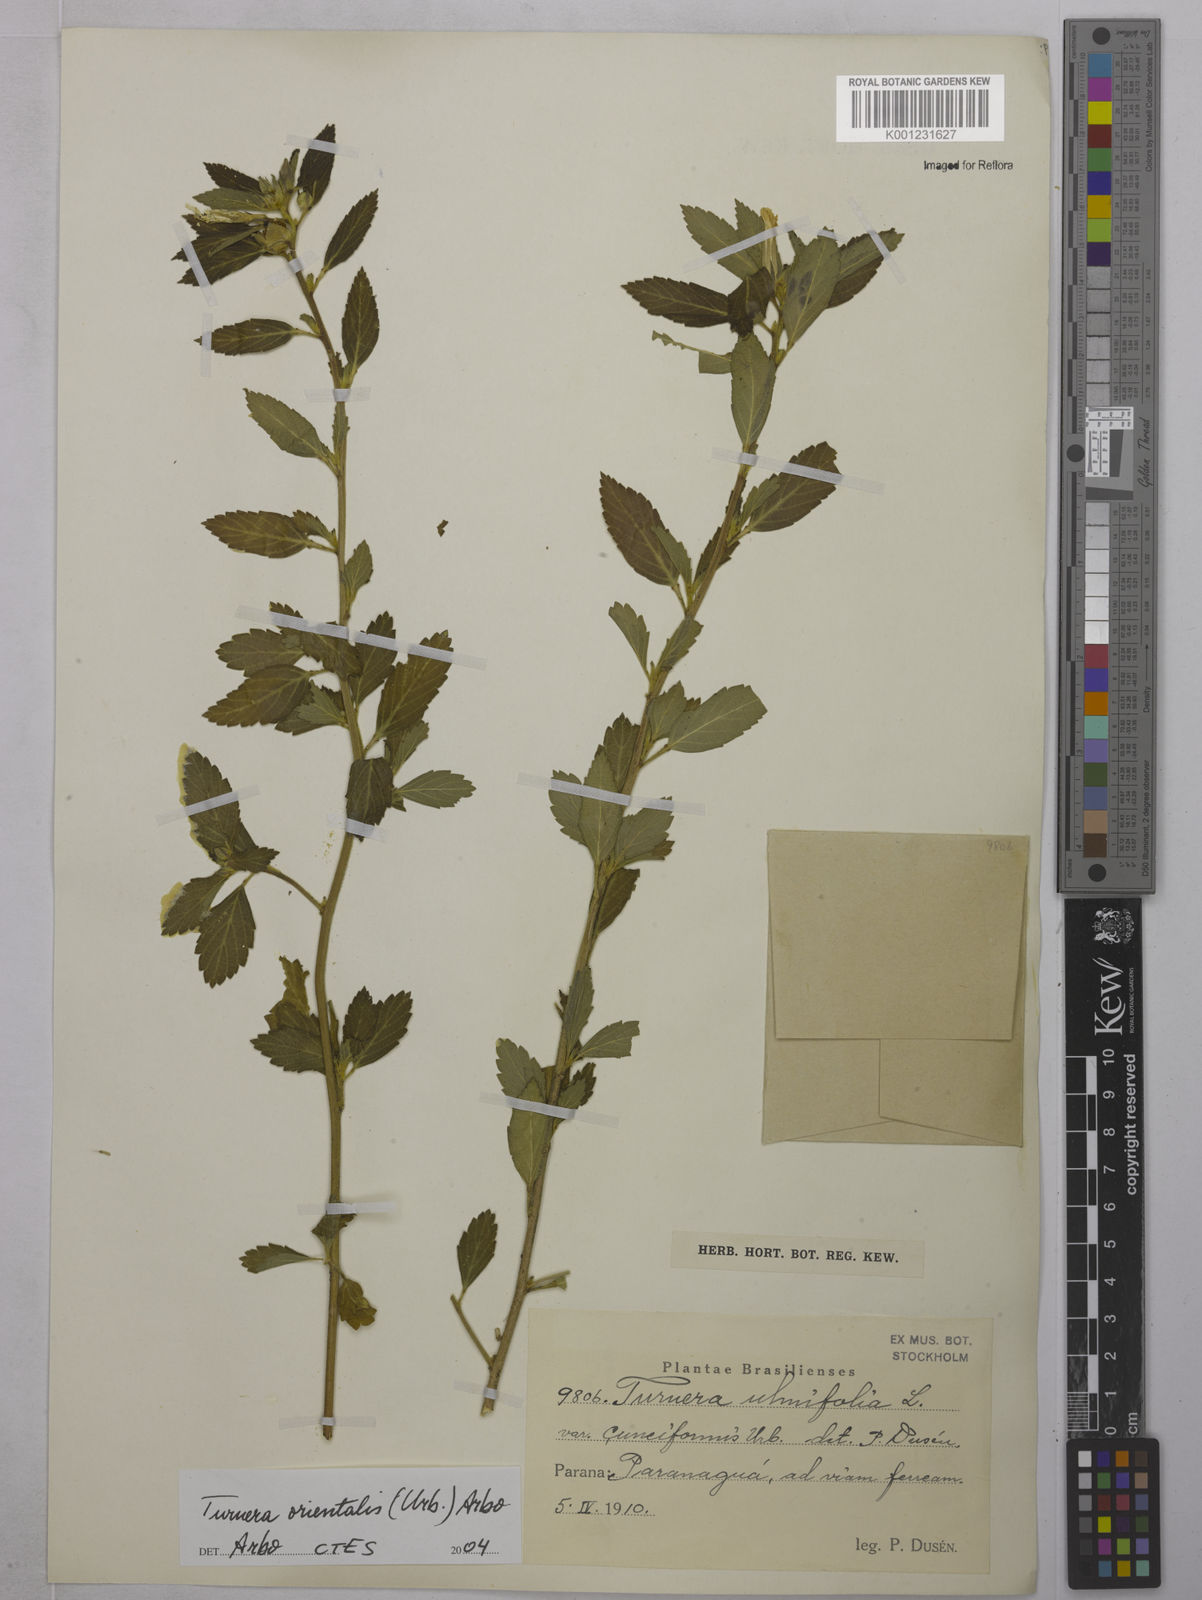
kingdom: Plantae
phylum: Tracheophyta
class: Magnoliopsida
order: Malpighiales
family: Turneraceae
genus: Turnera
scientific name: Turnera cuneiformis
